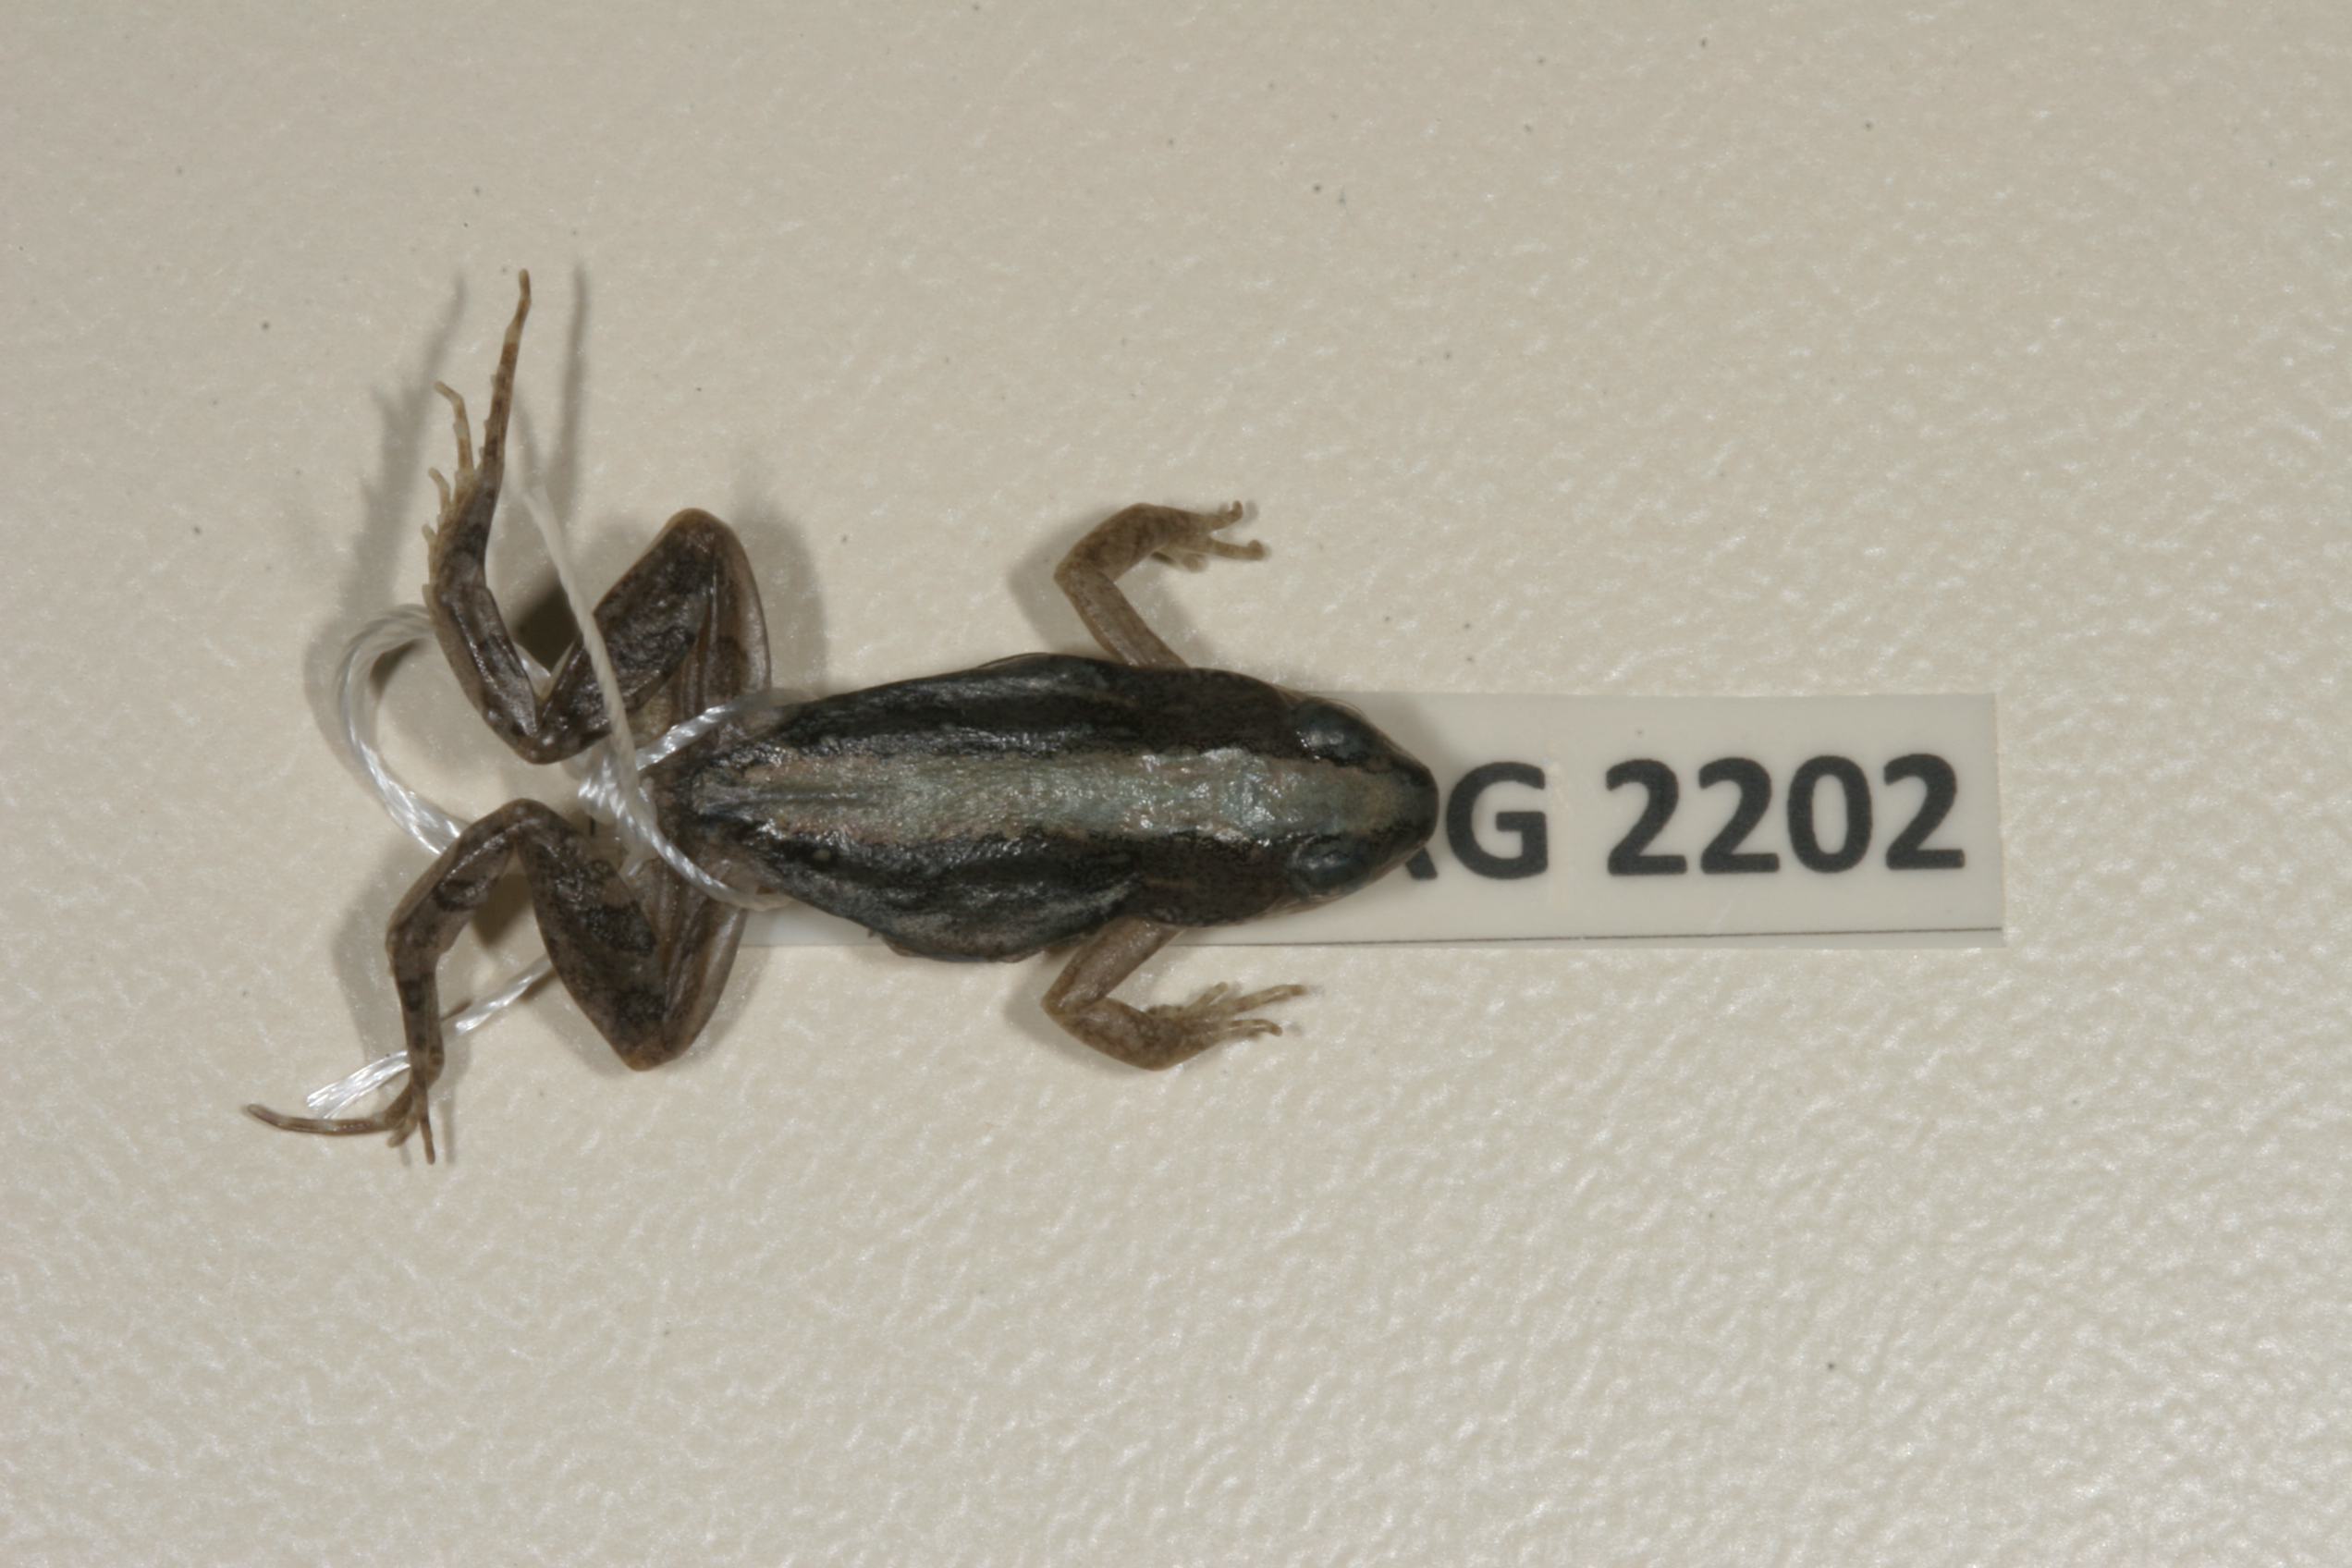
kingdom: Animalia
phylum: Chordata
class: Amphibia
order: Anura
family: Pyxicephalidae
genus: Cacosternum
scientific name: Cacosternum boettgeri
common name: Boettger's frog
